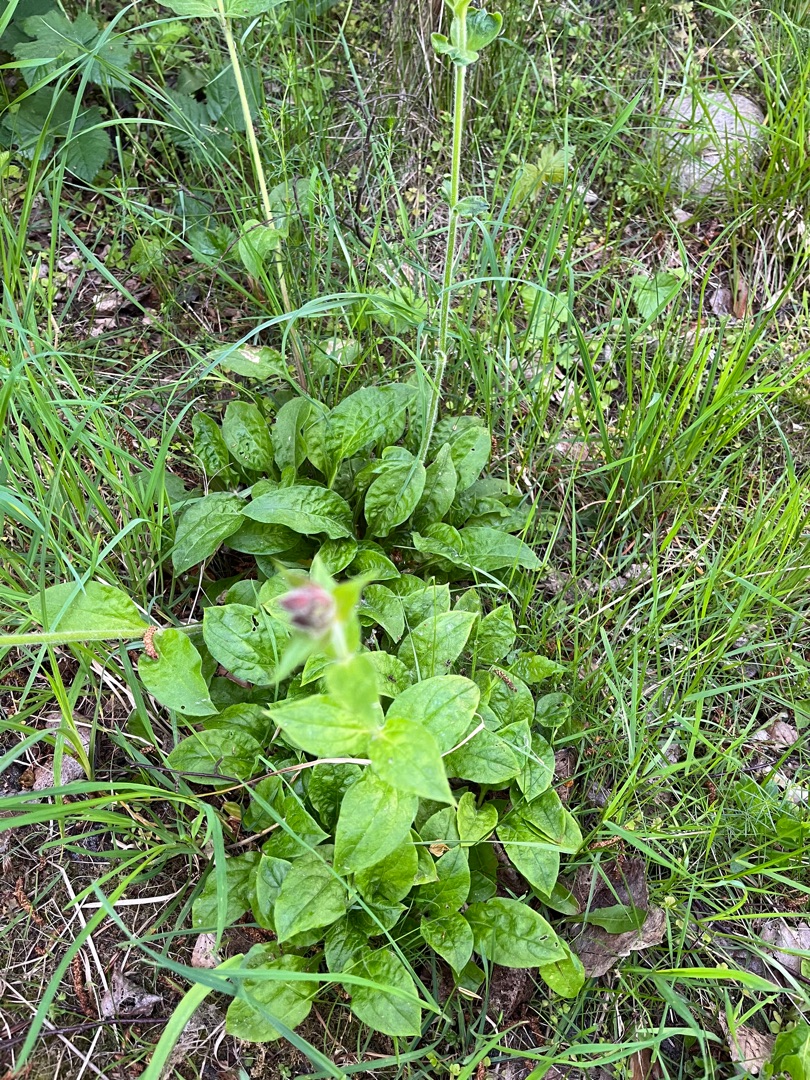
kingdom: Plantae
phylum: Tracheophyta
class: Magnoliopsida
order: Caryophyllales
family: Caryophyllaceae
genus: Silene
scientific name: Silene dioica
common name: Dagpragtstjerne
